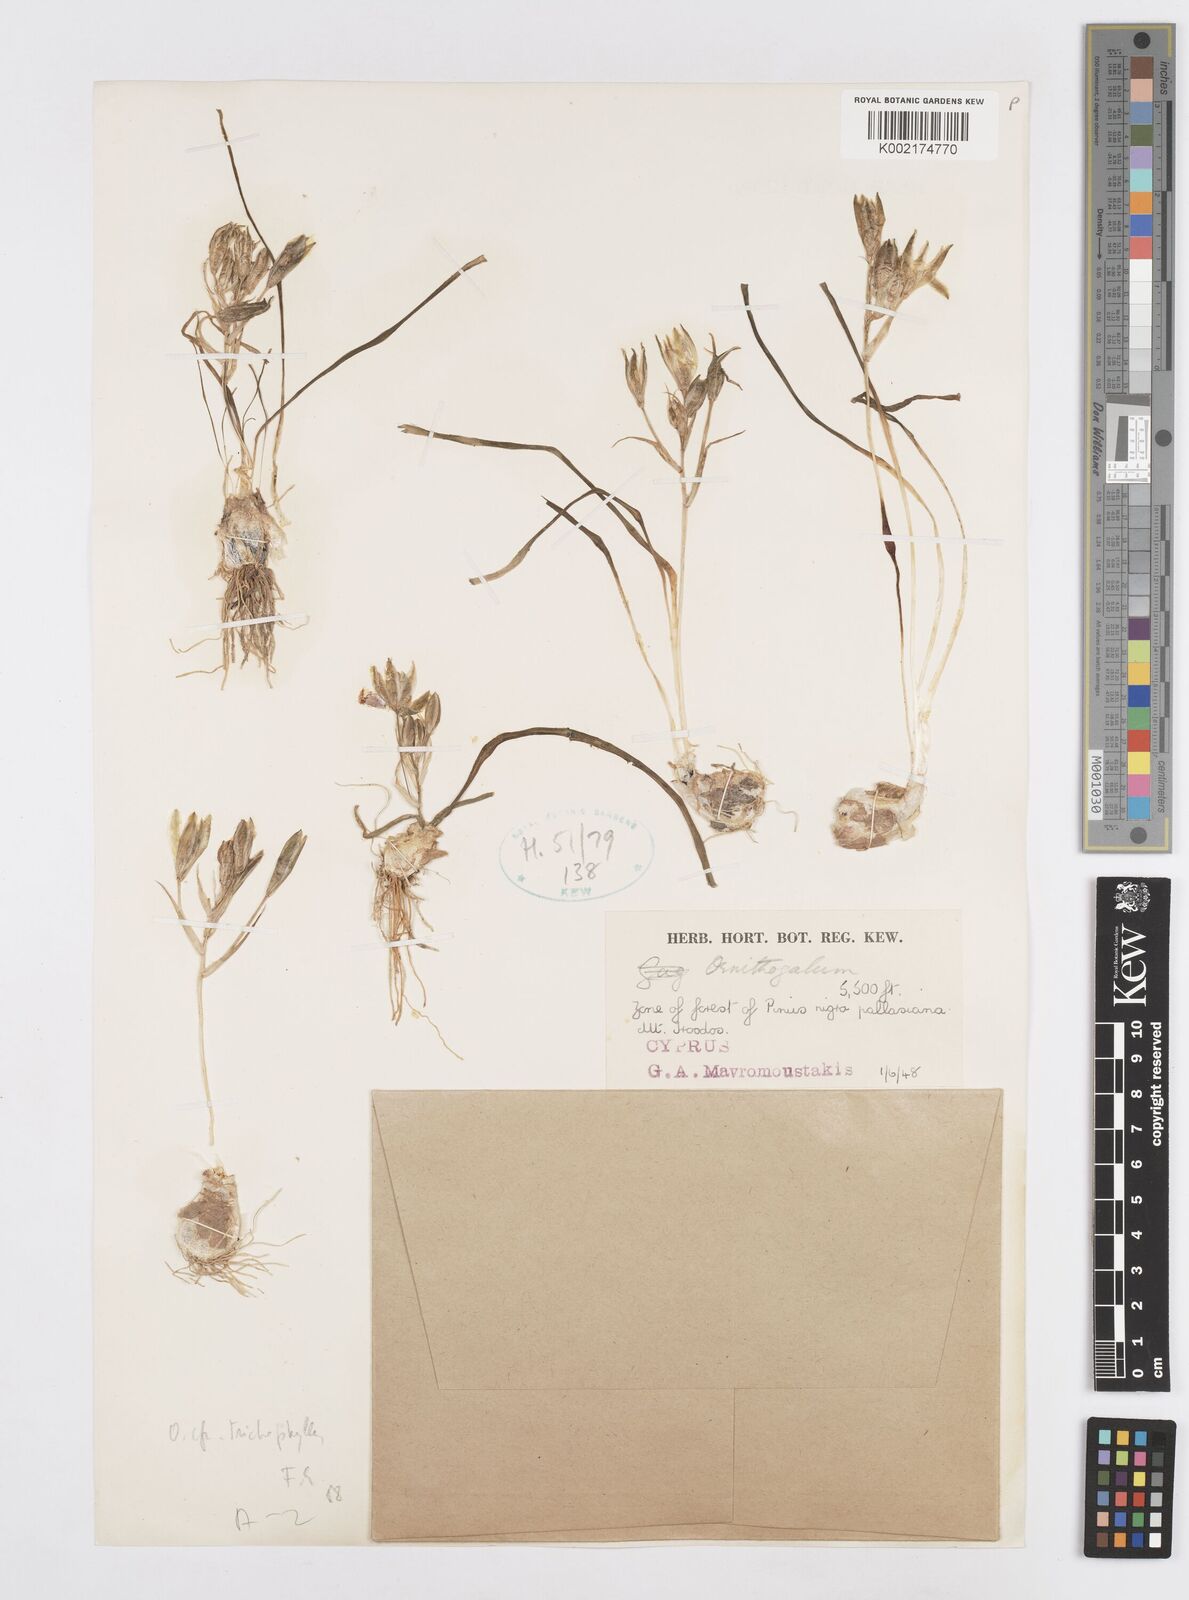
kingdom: Plantae
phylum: Tracheophyta
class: Liliopsida
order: Asparagales
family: Asparagaceae
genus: Ornithogalum
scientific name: Ornithogalum trichophyllum
